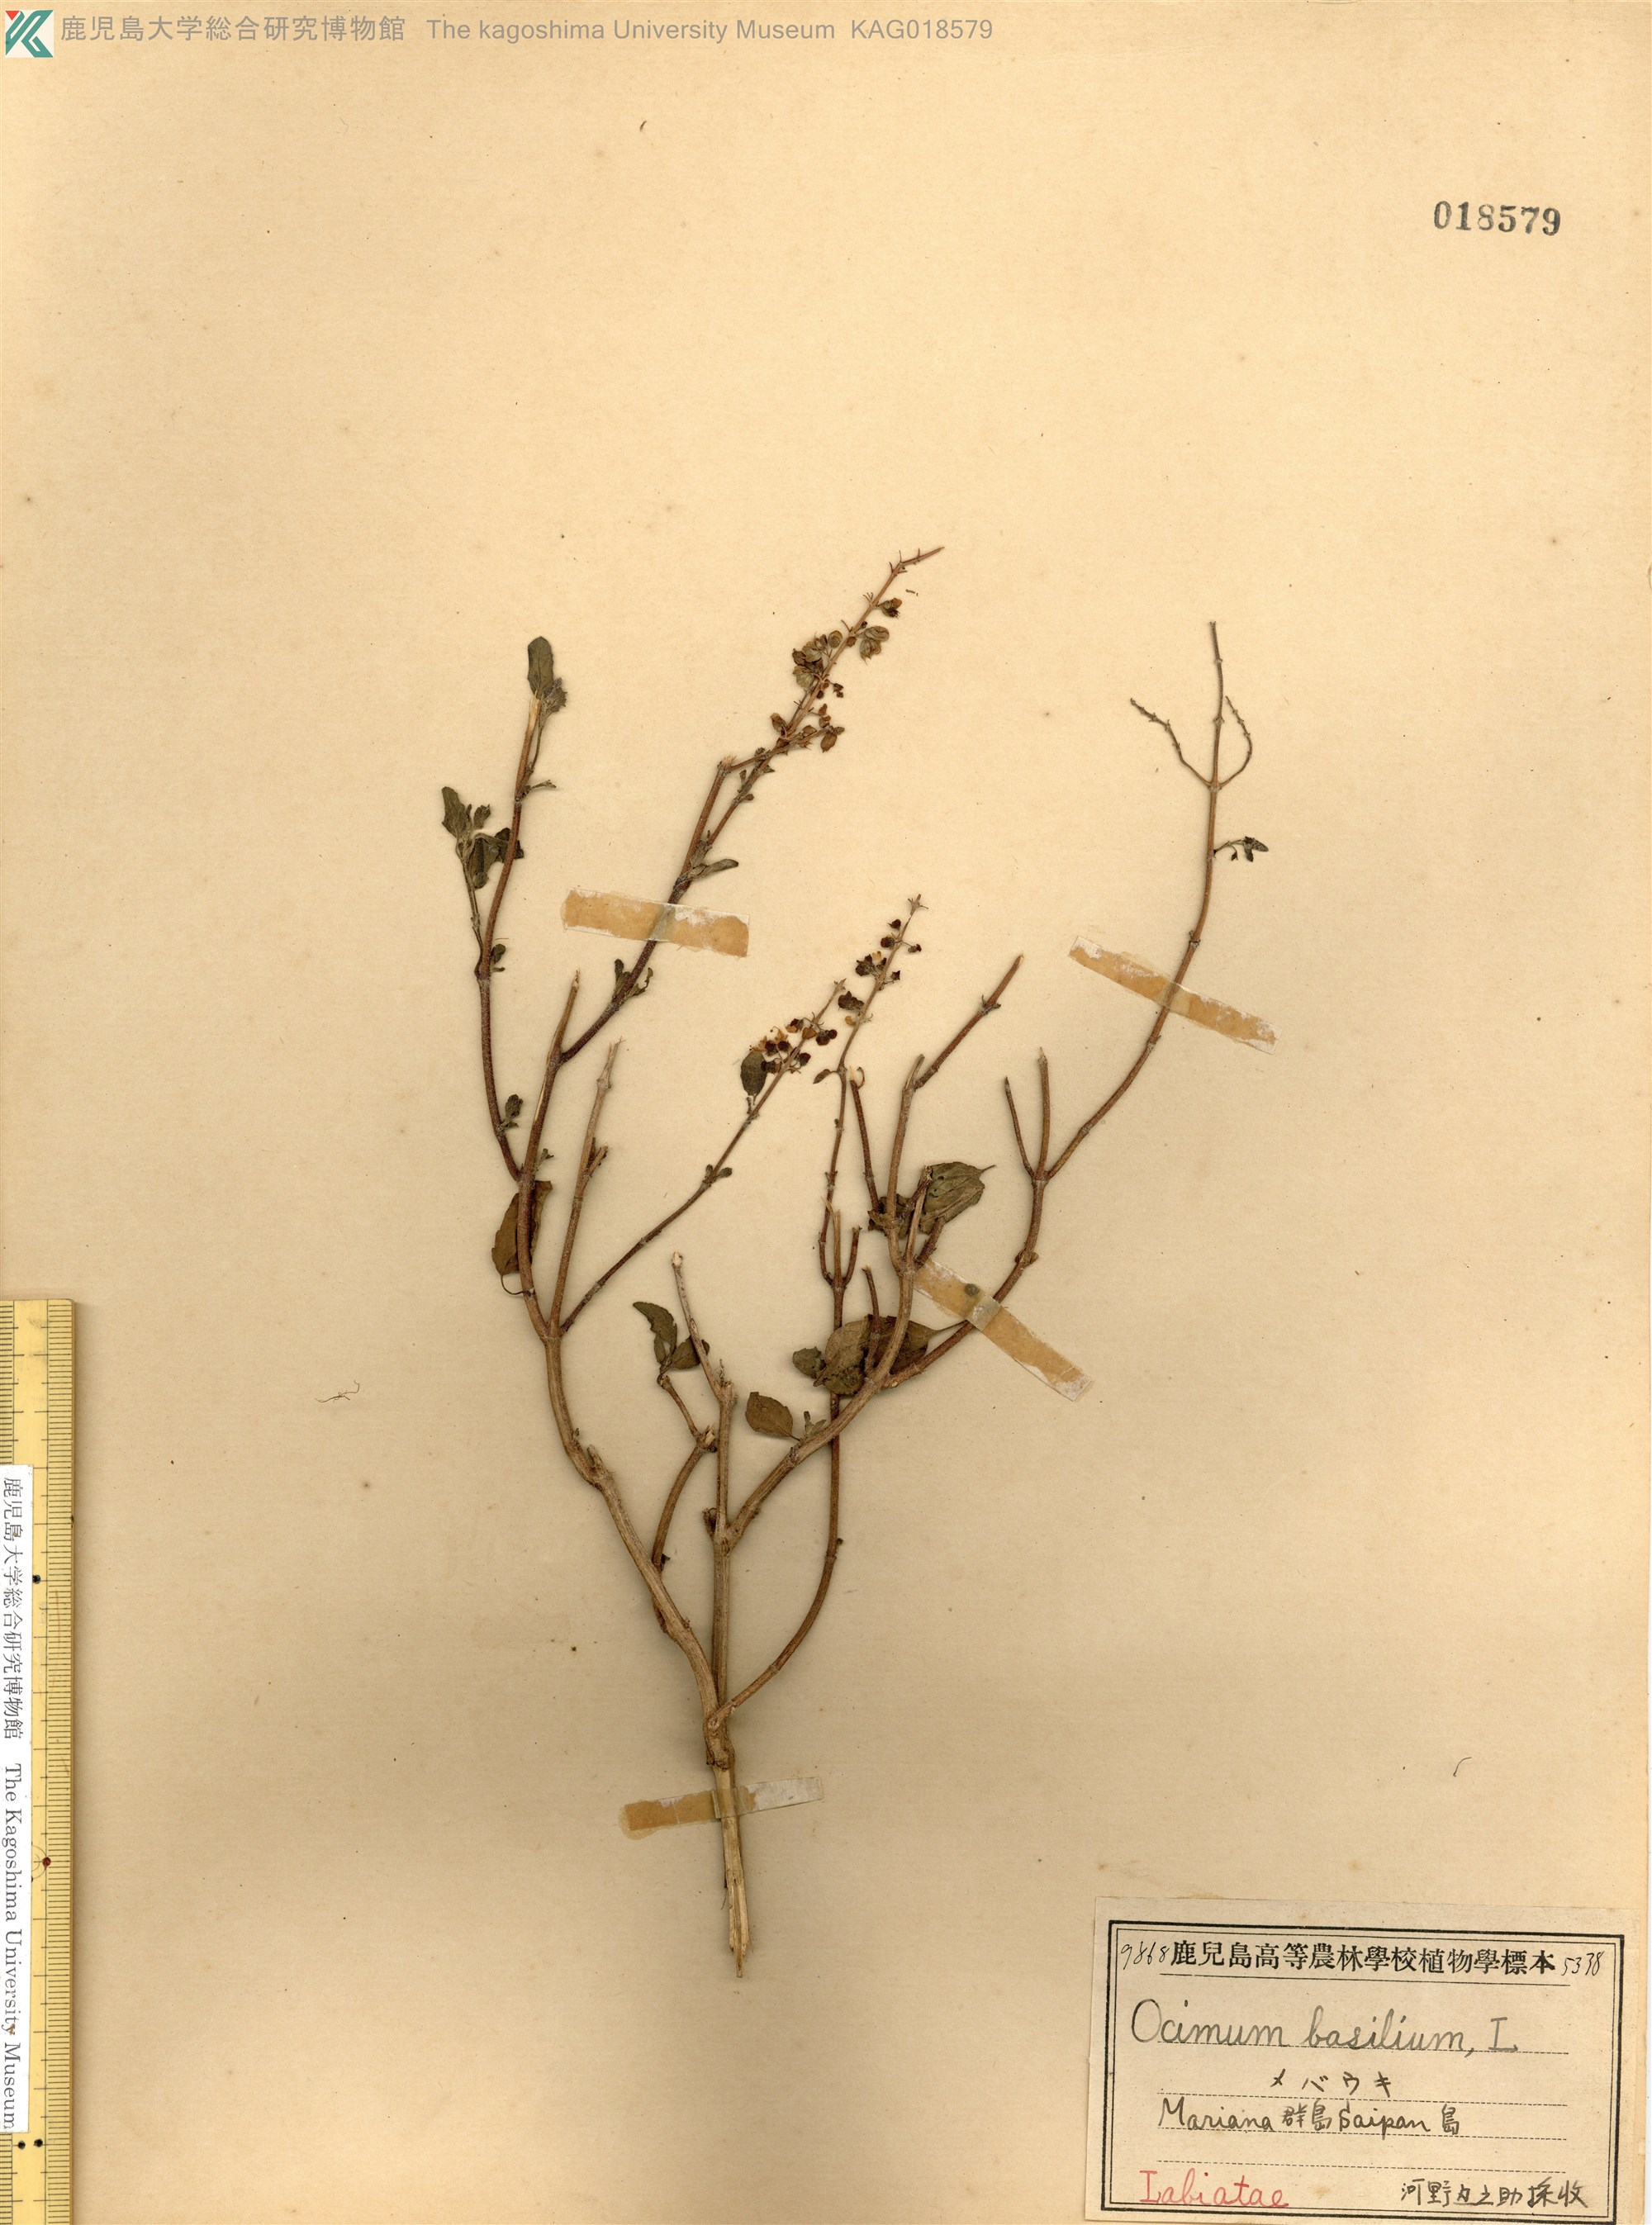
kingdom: Plantae
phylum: Tracheophyta
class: Magnoliopsida
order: Lamiales
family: Lamiaceae
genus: Ocimum
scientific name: Ocimum basilicum
